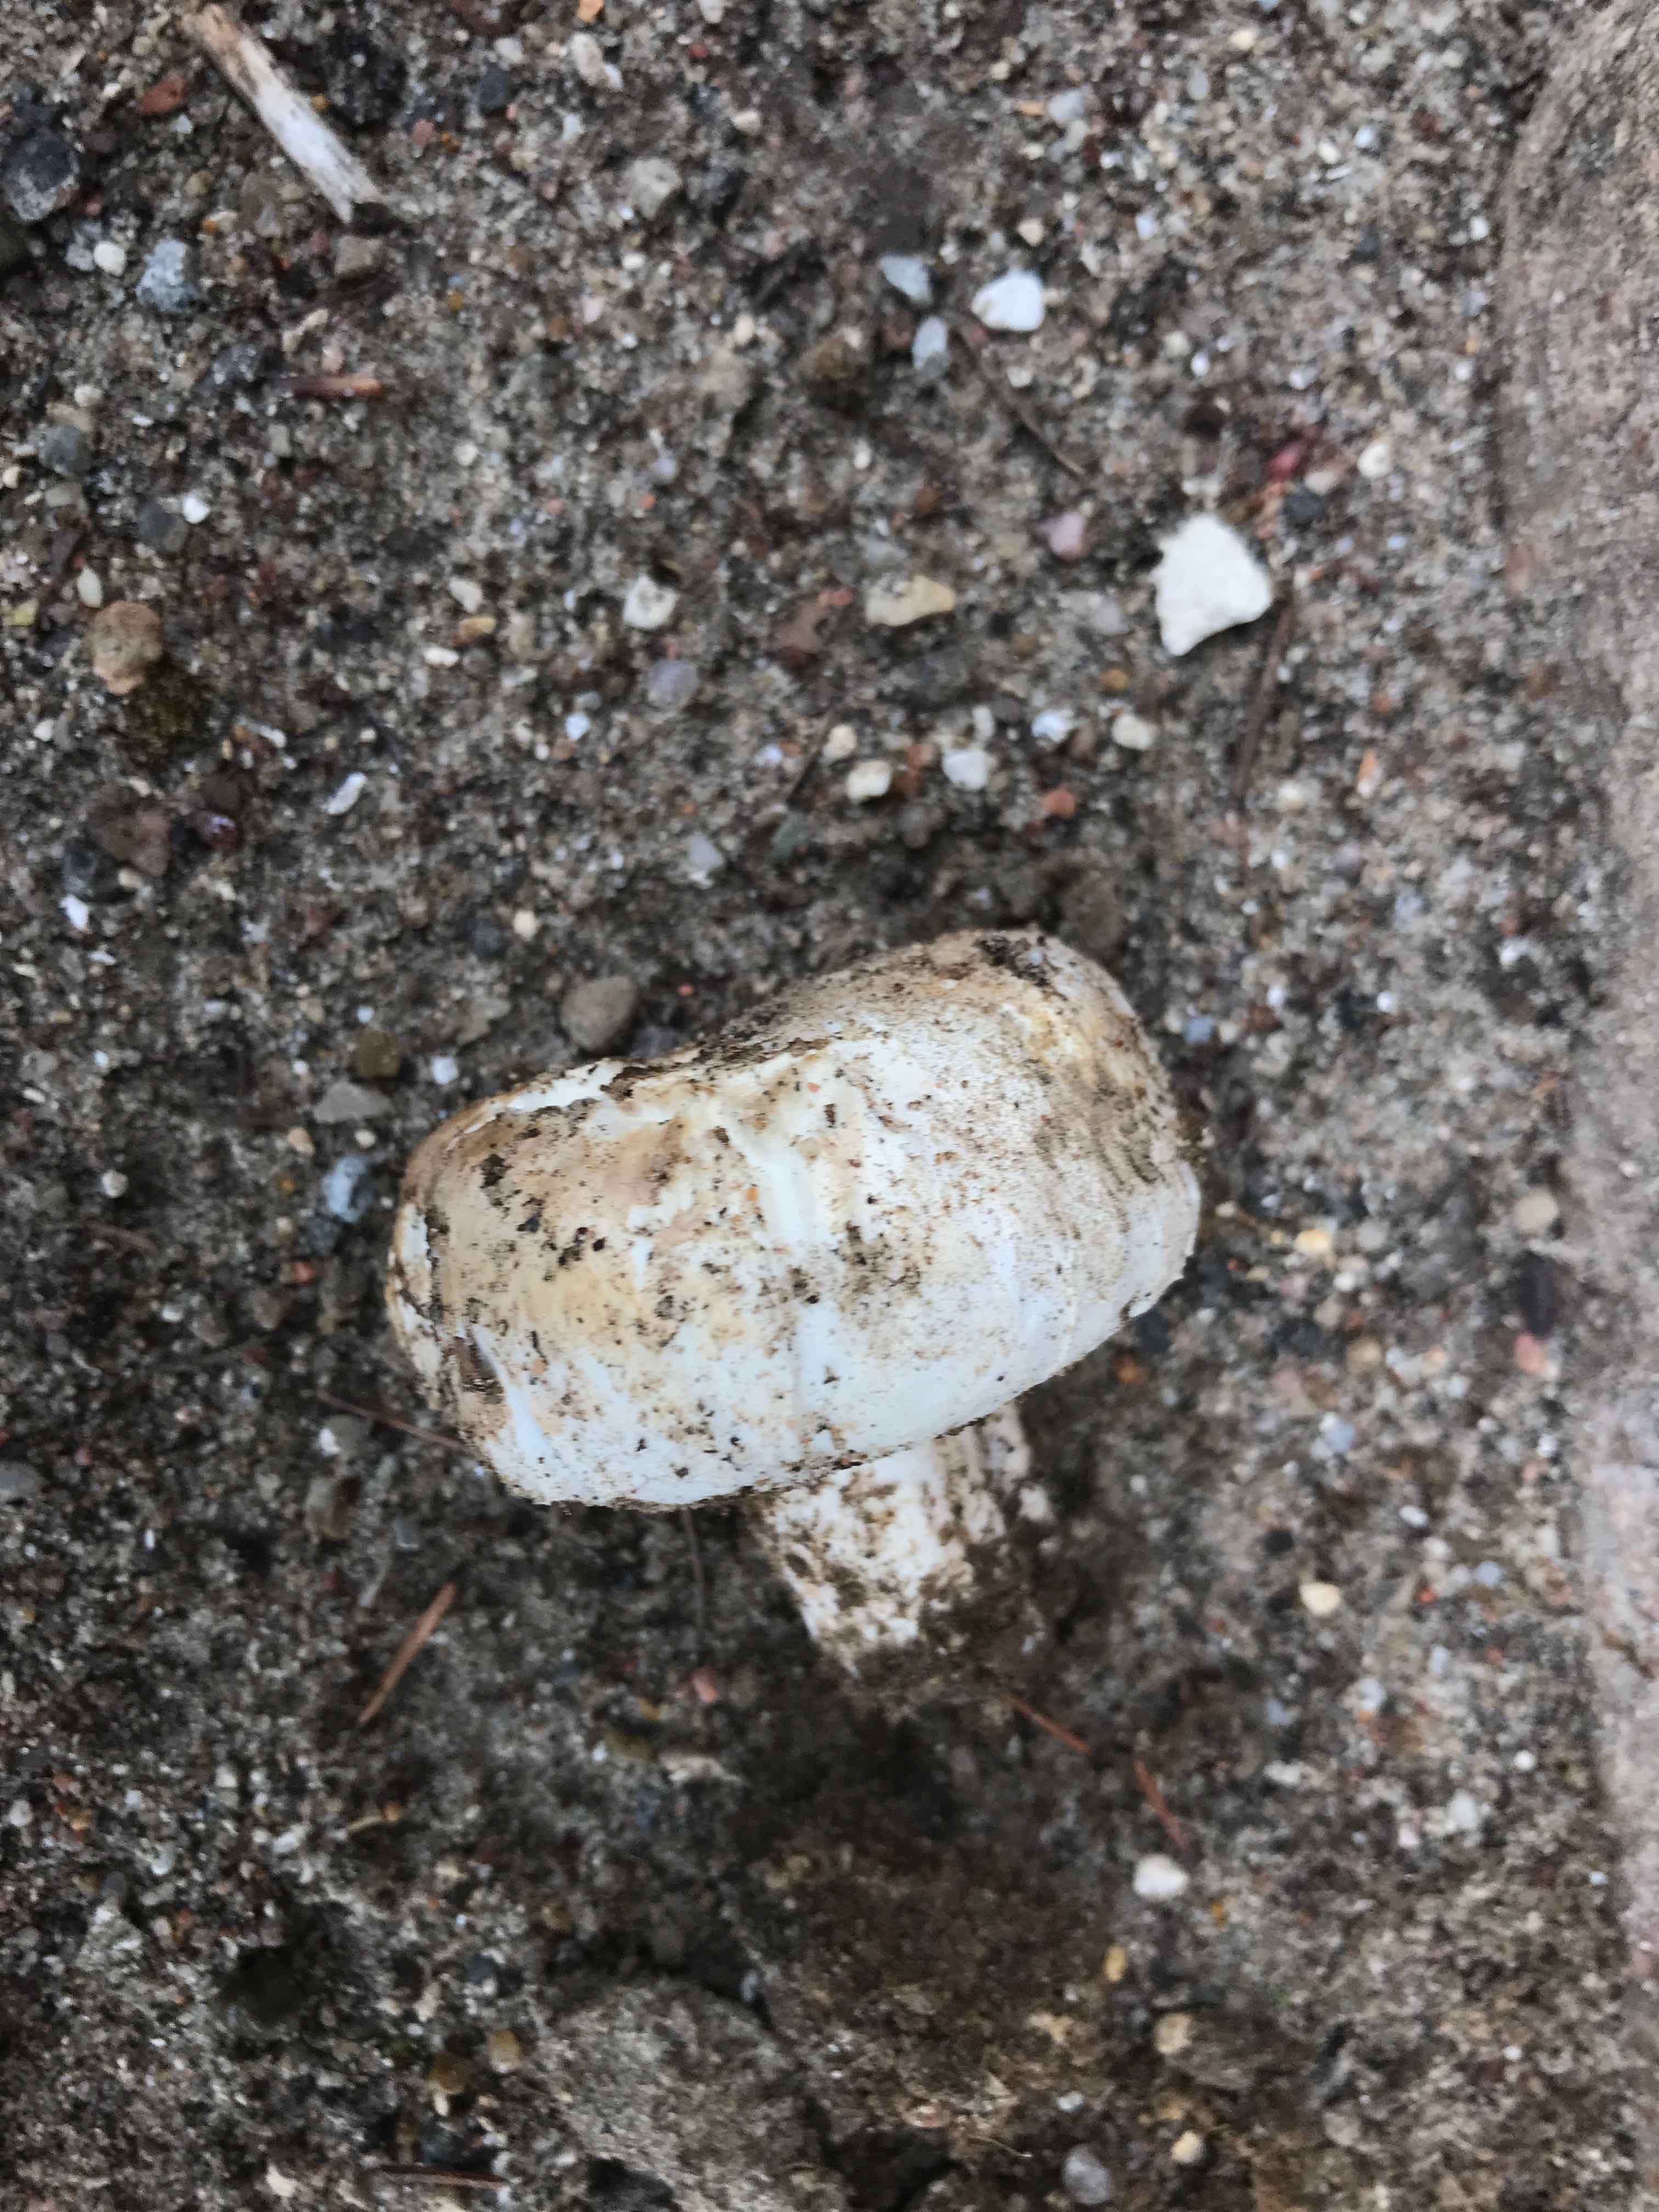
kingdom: Fungi
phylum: Basidiomycota
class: Agaricomycetes
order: Agaricales
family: Agaricaceae
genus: Agaricus
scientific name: Agaricus bitorquis
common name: vej-champignon
